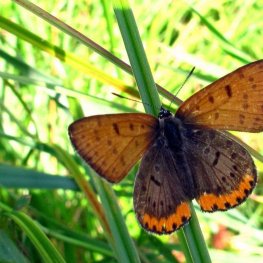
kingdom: Animalia
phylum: Arthropoda
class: Insecta
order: Lepidoptera
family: Sesiidae
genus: Sesia
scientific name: Sesia Lycaena hyllus
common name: Bronze Copper
